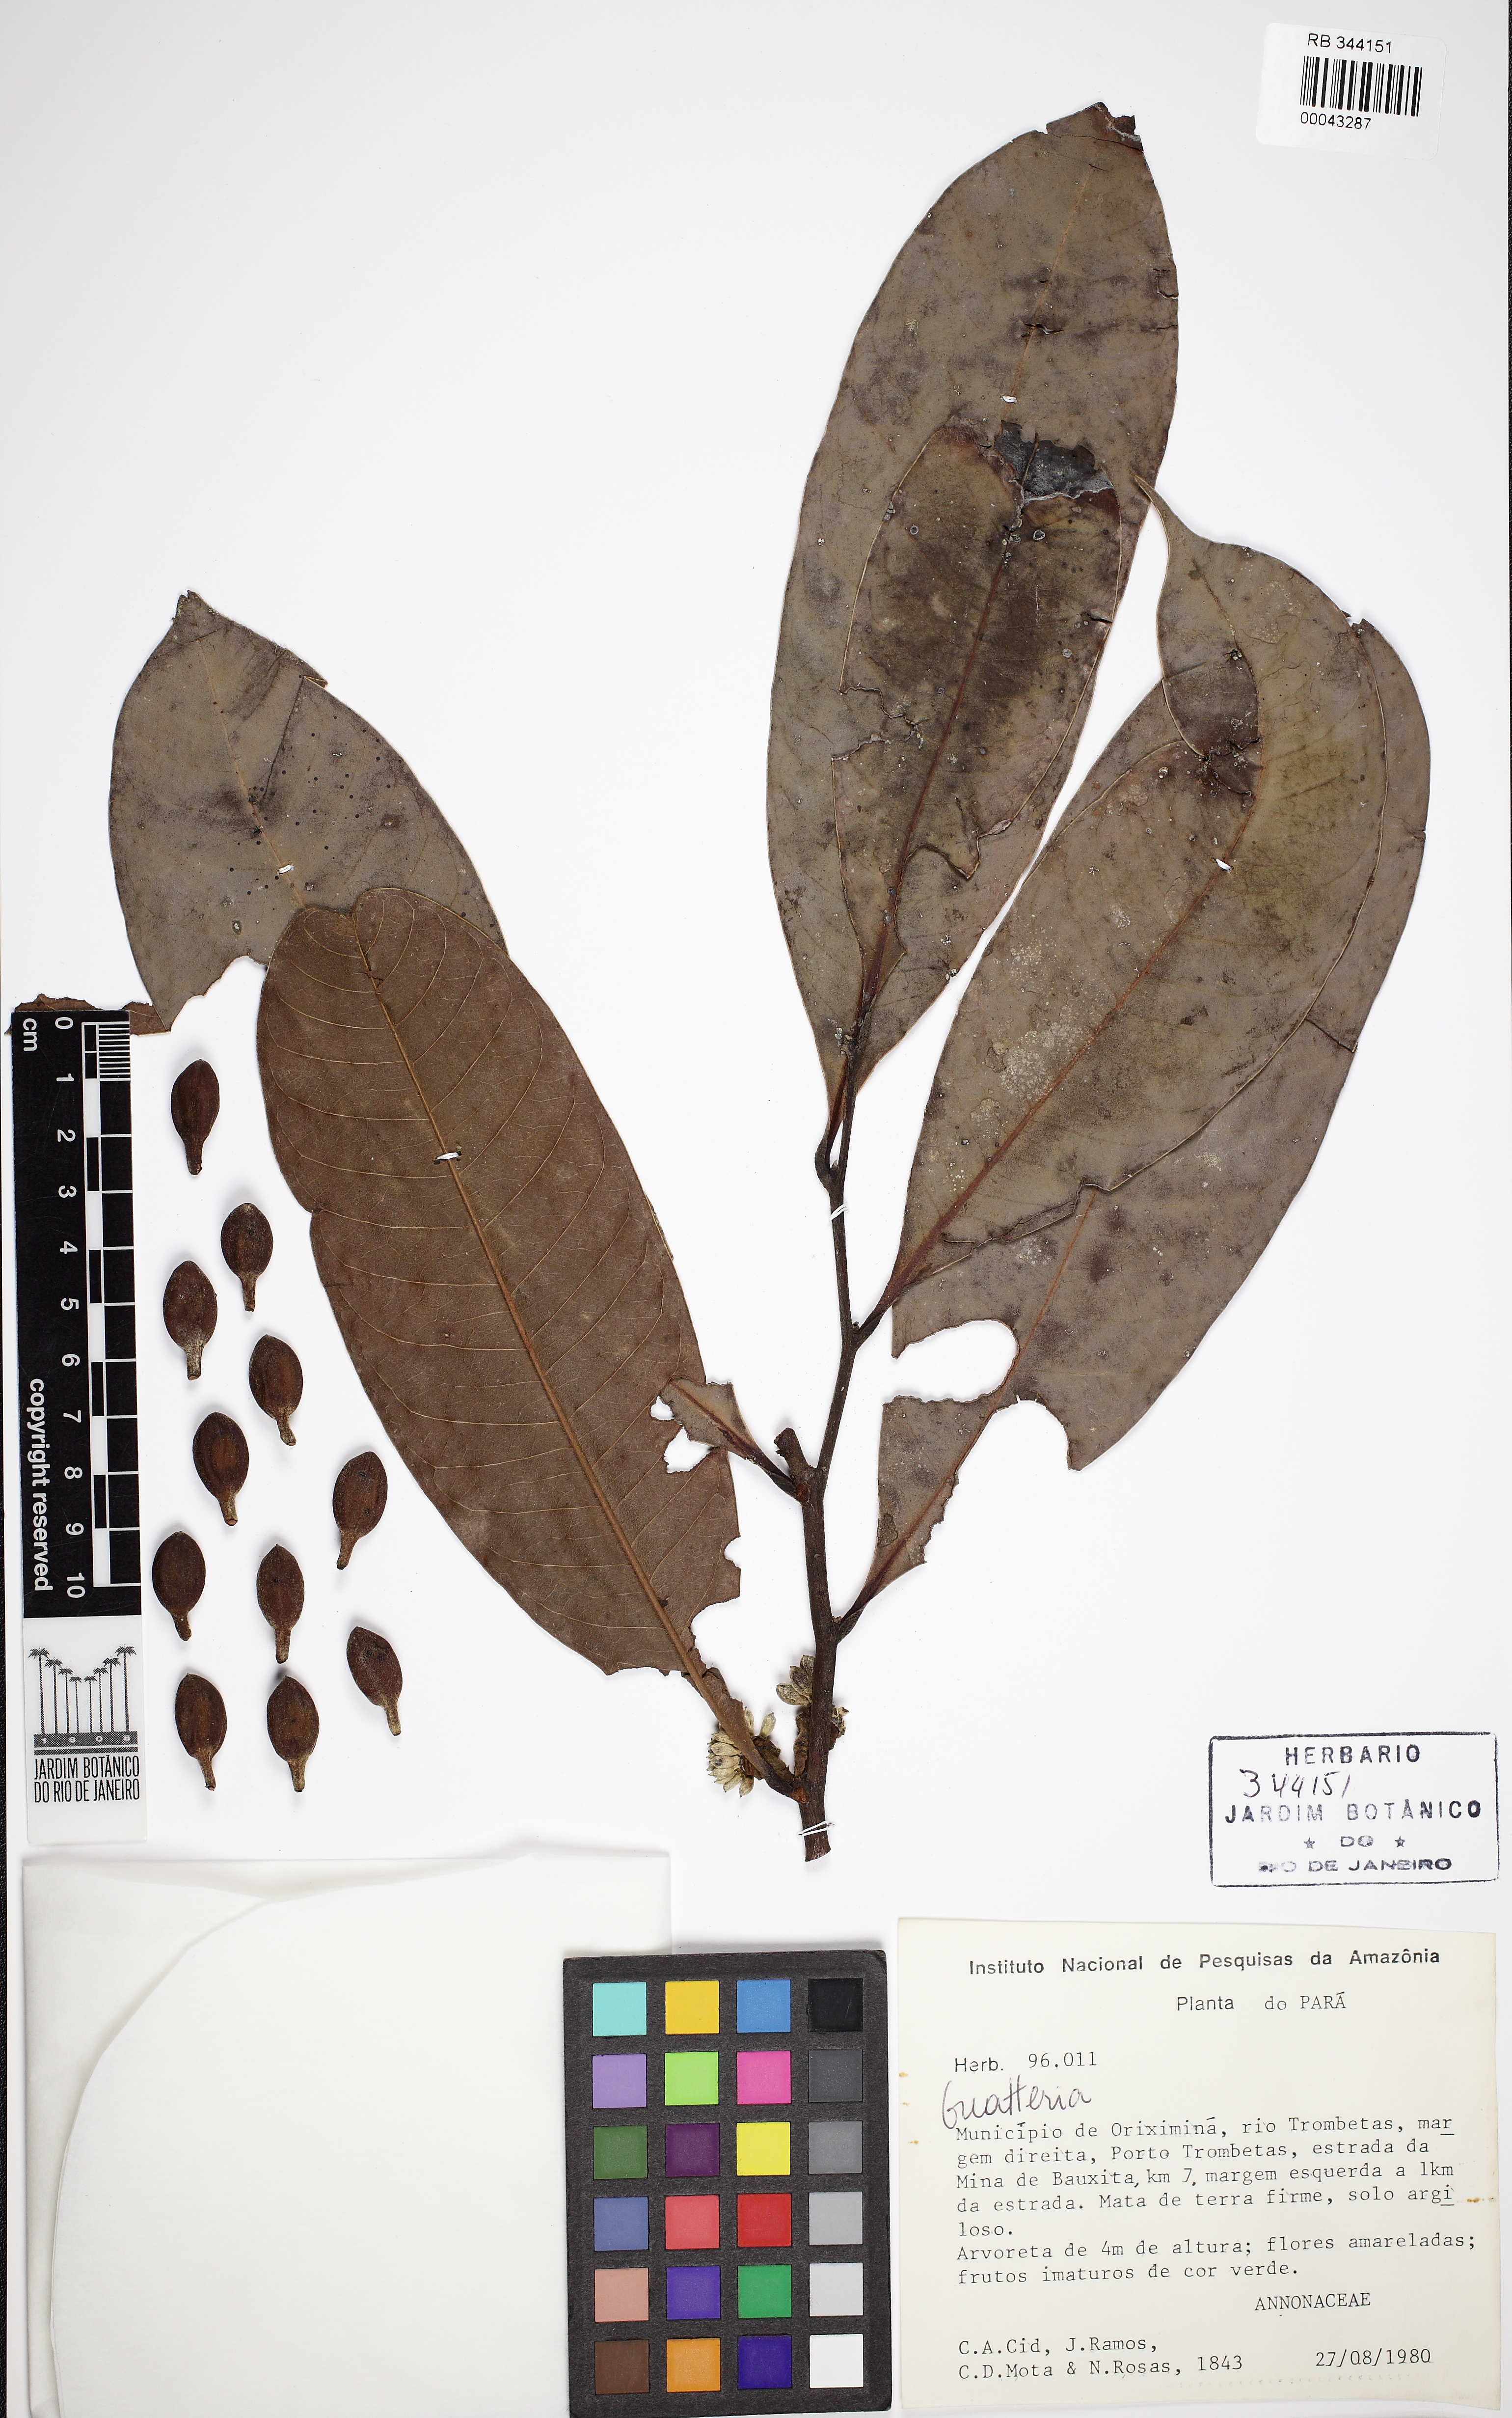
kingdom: Plantae
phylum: Tracheophyta
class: Magnoliopsida
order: Magnoliales
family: Annonaceae
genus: Guatteria
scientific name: Guatteria megalophylla
